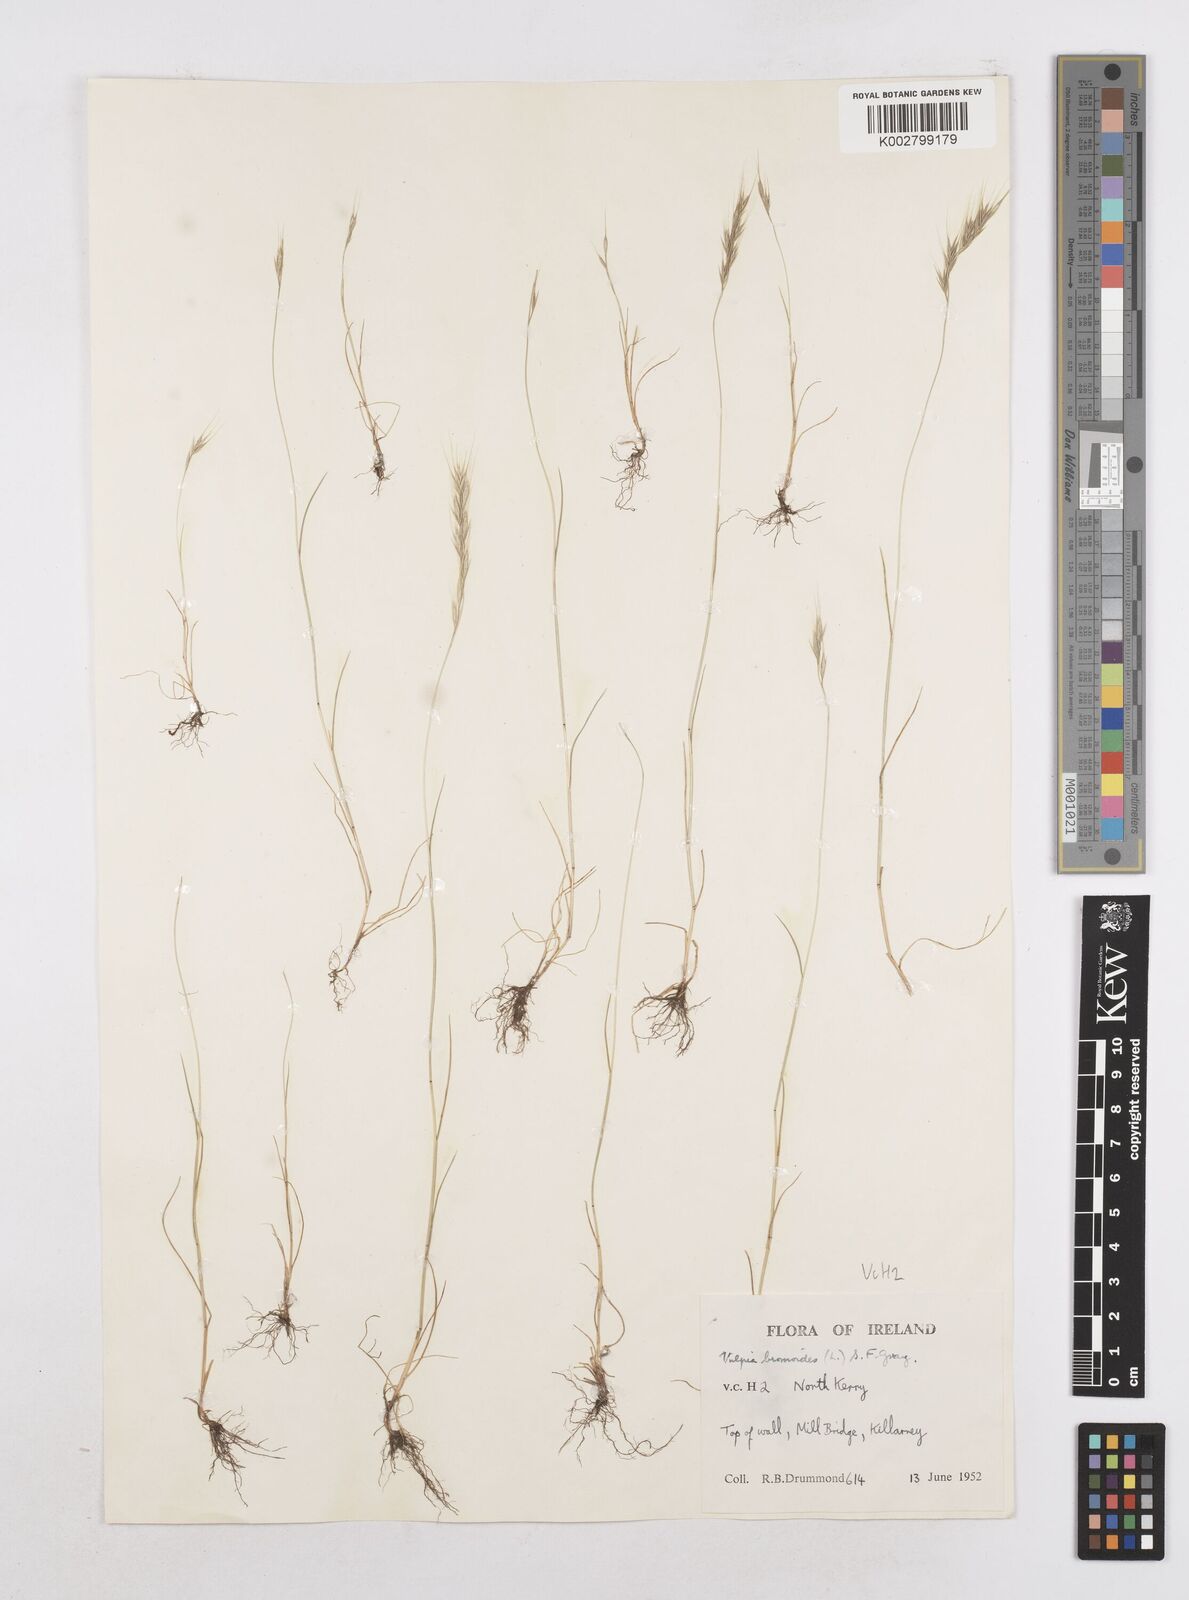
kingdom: Plantae
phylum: Tracheophyta
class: Liliopsida
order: Poales
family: Poaceae
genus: Festuca
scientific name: Festuca bromoides
